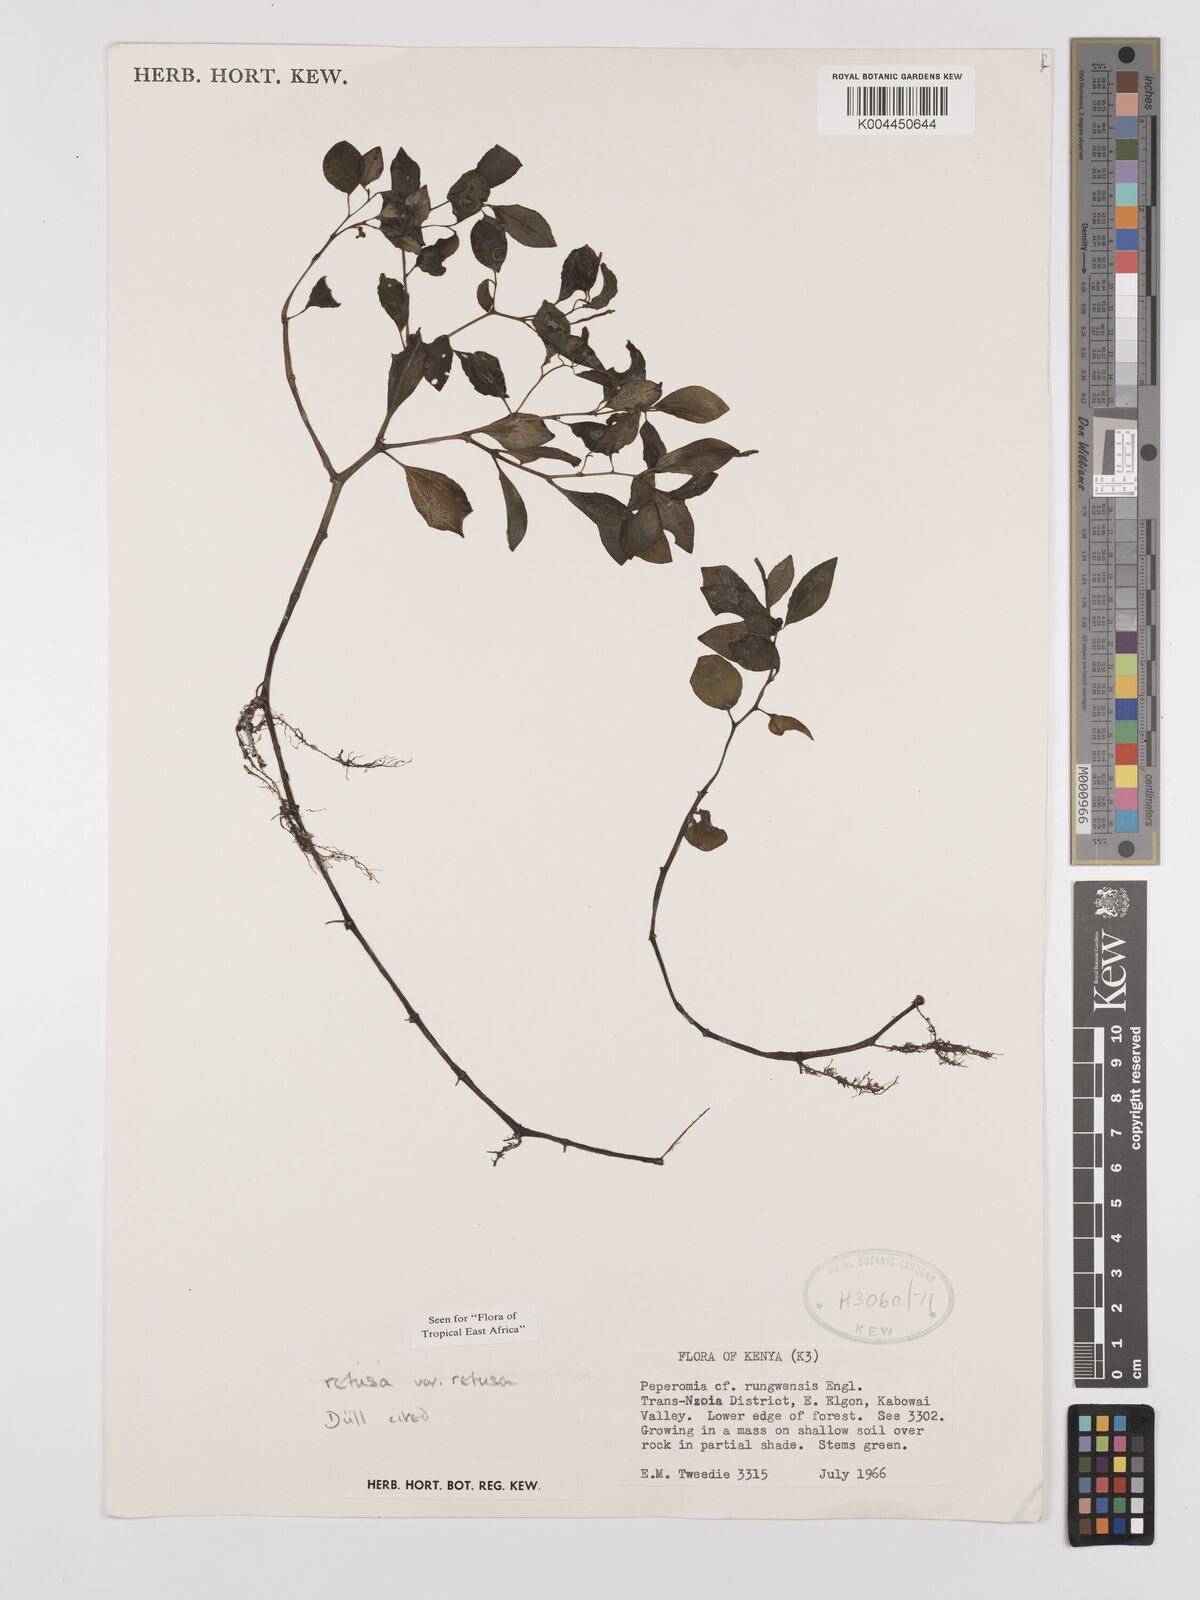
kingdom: Plantae
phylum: Tracheophyta
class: Magnoliopsida
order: Piperales
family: Piperaceae
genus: Peperomia
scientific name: Peperomia retusa
